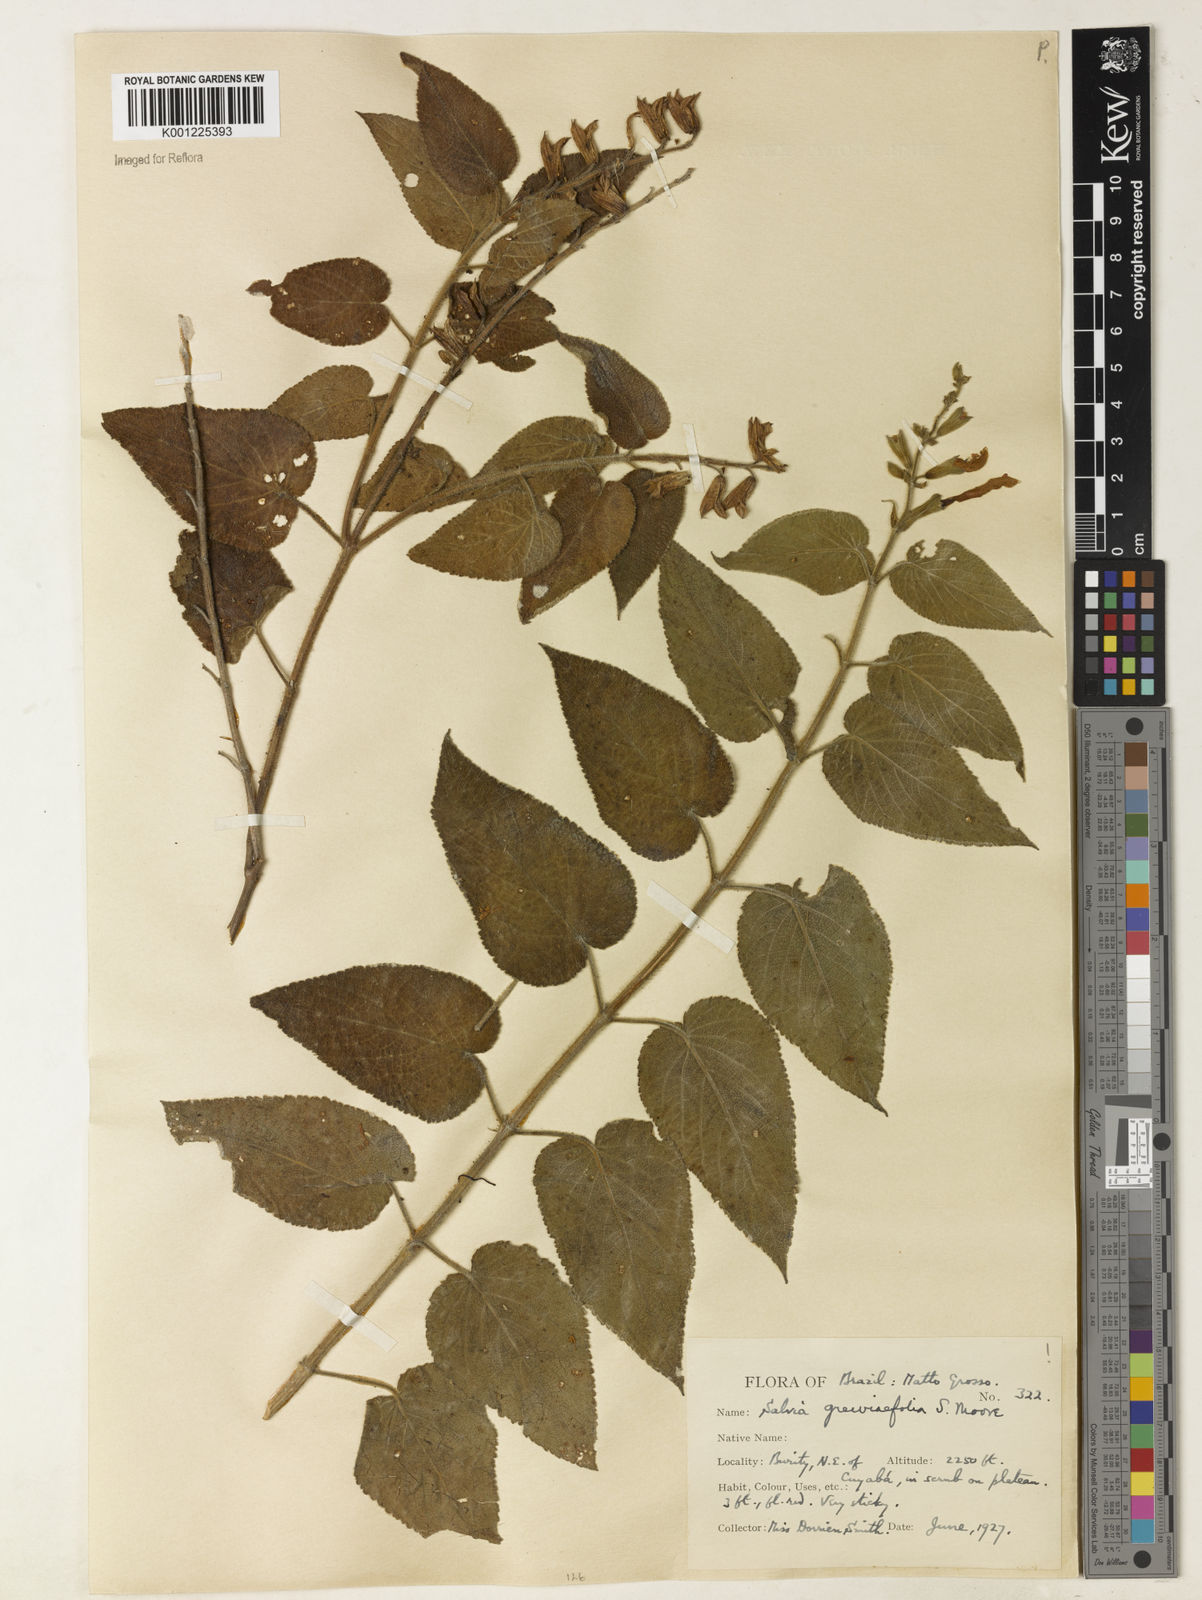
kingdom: Plantae
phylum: Tracheophyta
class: Magnoliopsida
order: Lamiales
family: Lamiaceae
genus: Salvia
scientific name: Salvia grewiifolia
